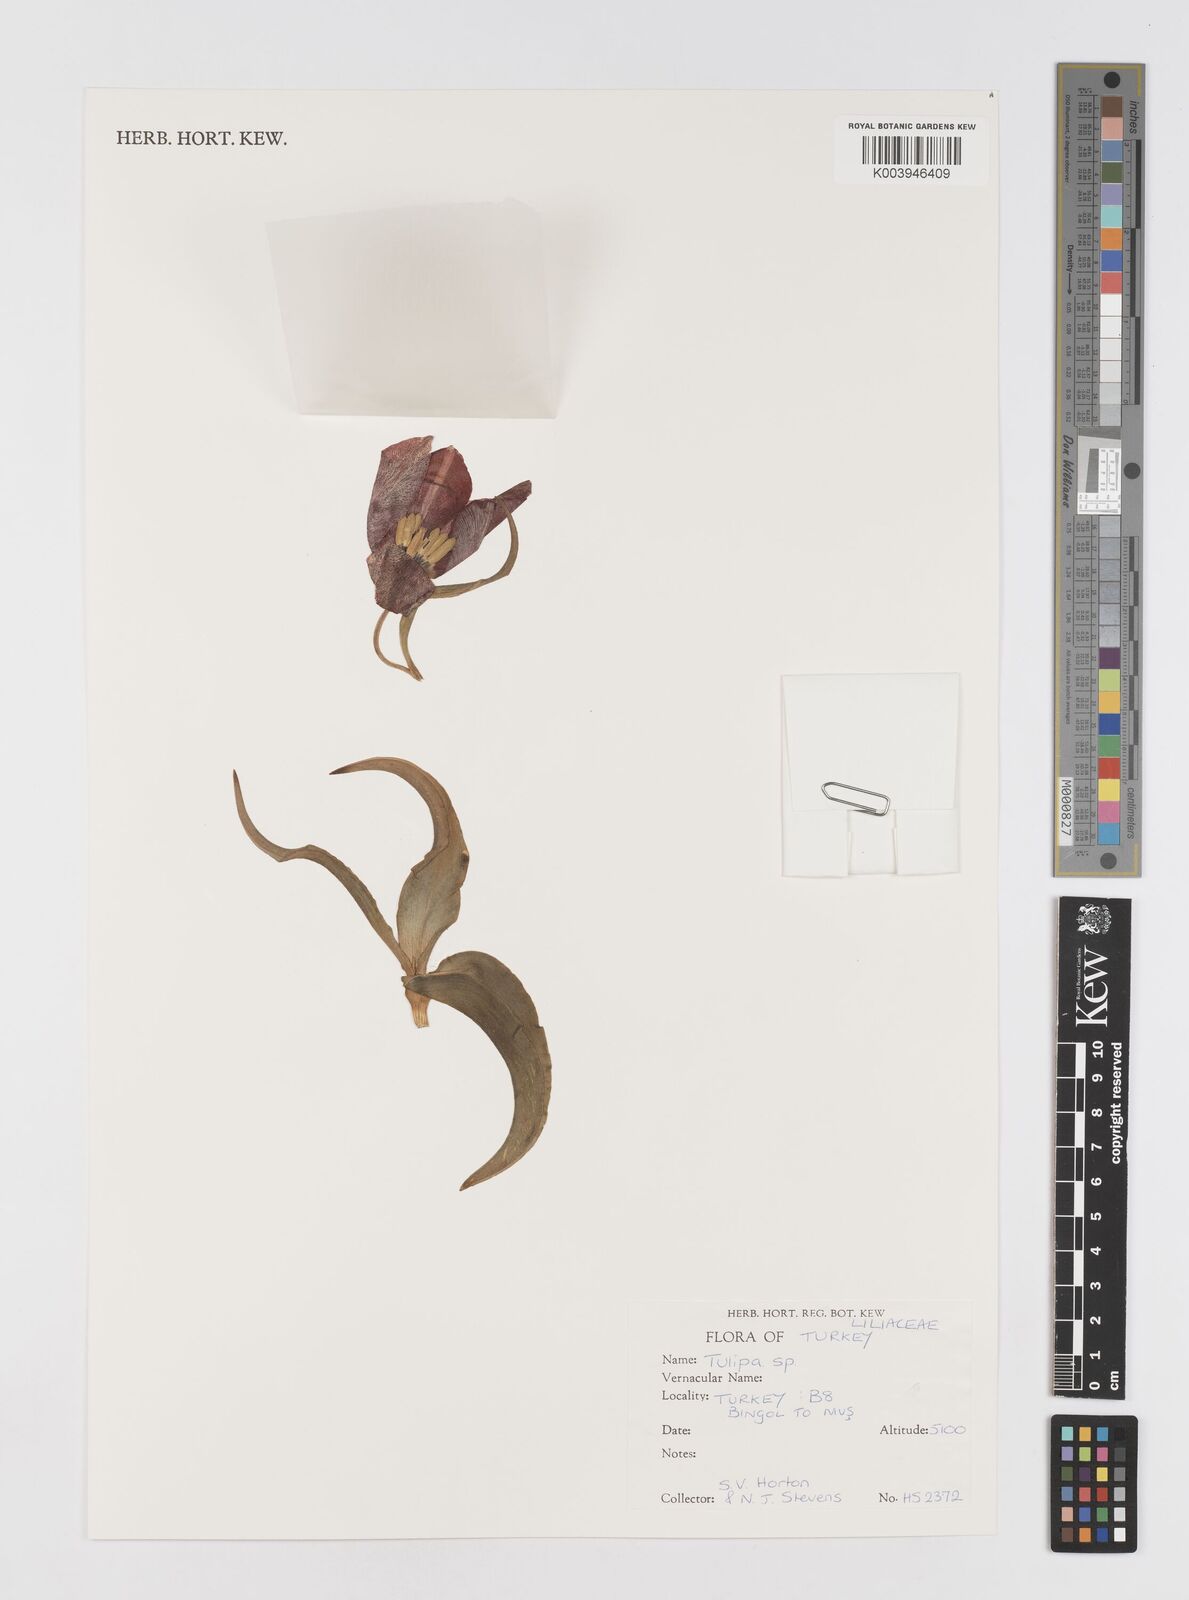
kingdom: Plantae
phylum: Tracheophyta
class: Liliopsida
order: Liliales
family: Liliaceae
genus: Tulipa
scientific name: Tulipa
